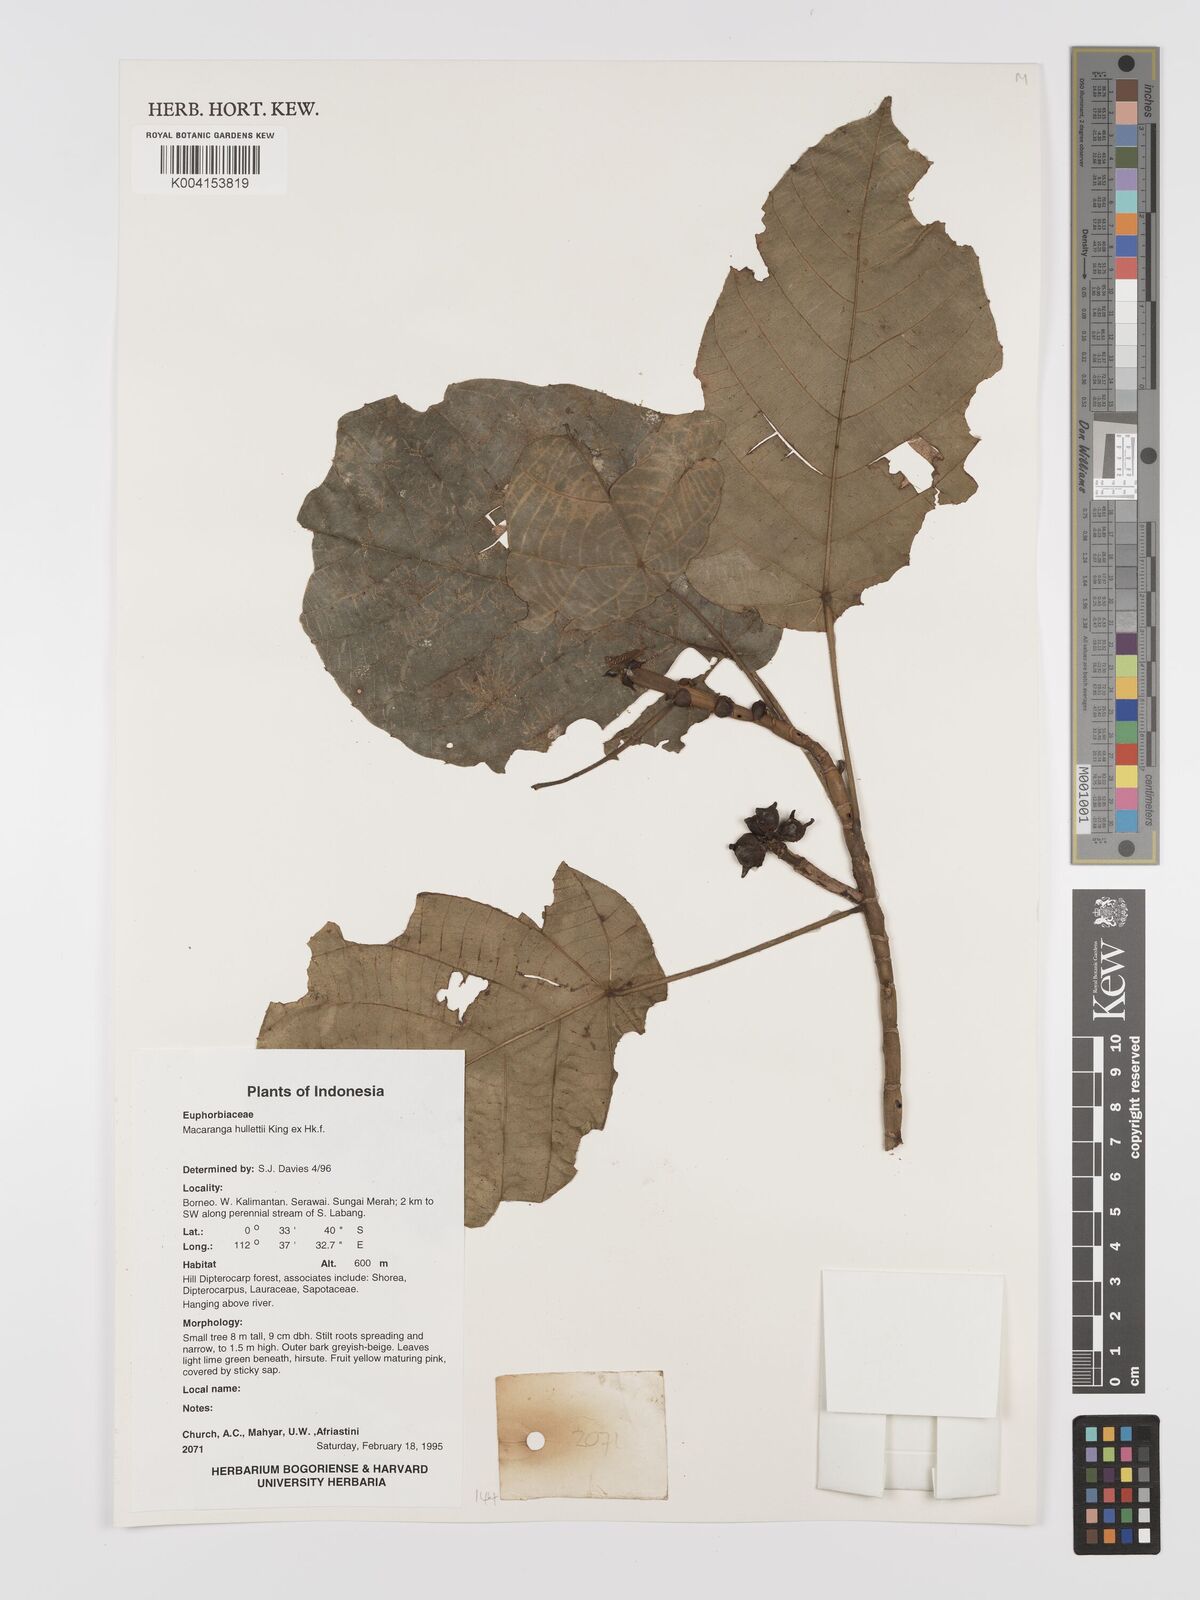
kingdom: Plantae
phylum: Tracheophyta
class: Magnoliopsida
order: Malpighiales
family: Euphorbiaceae
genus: Macaranga
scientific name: Macaranga hullettii
